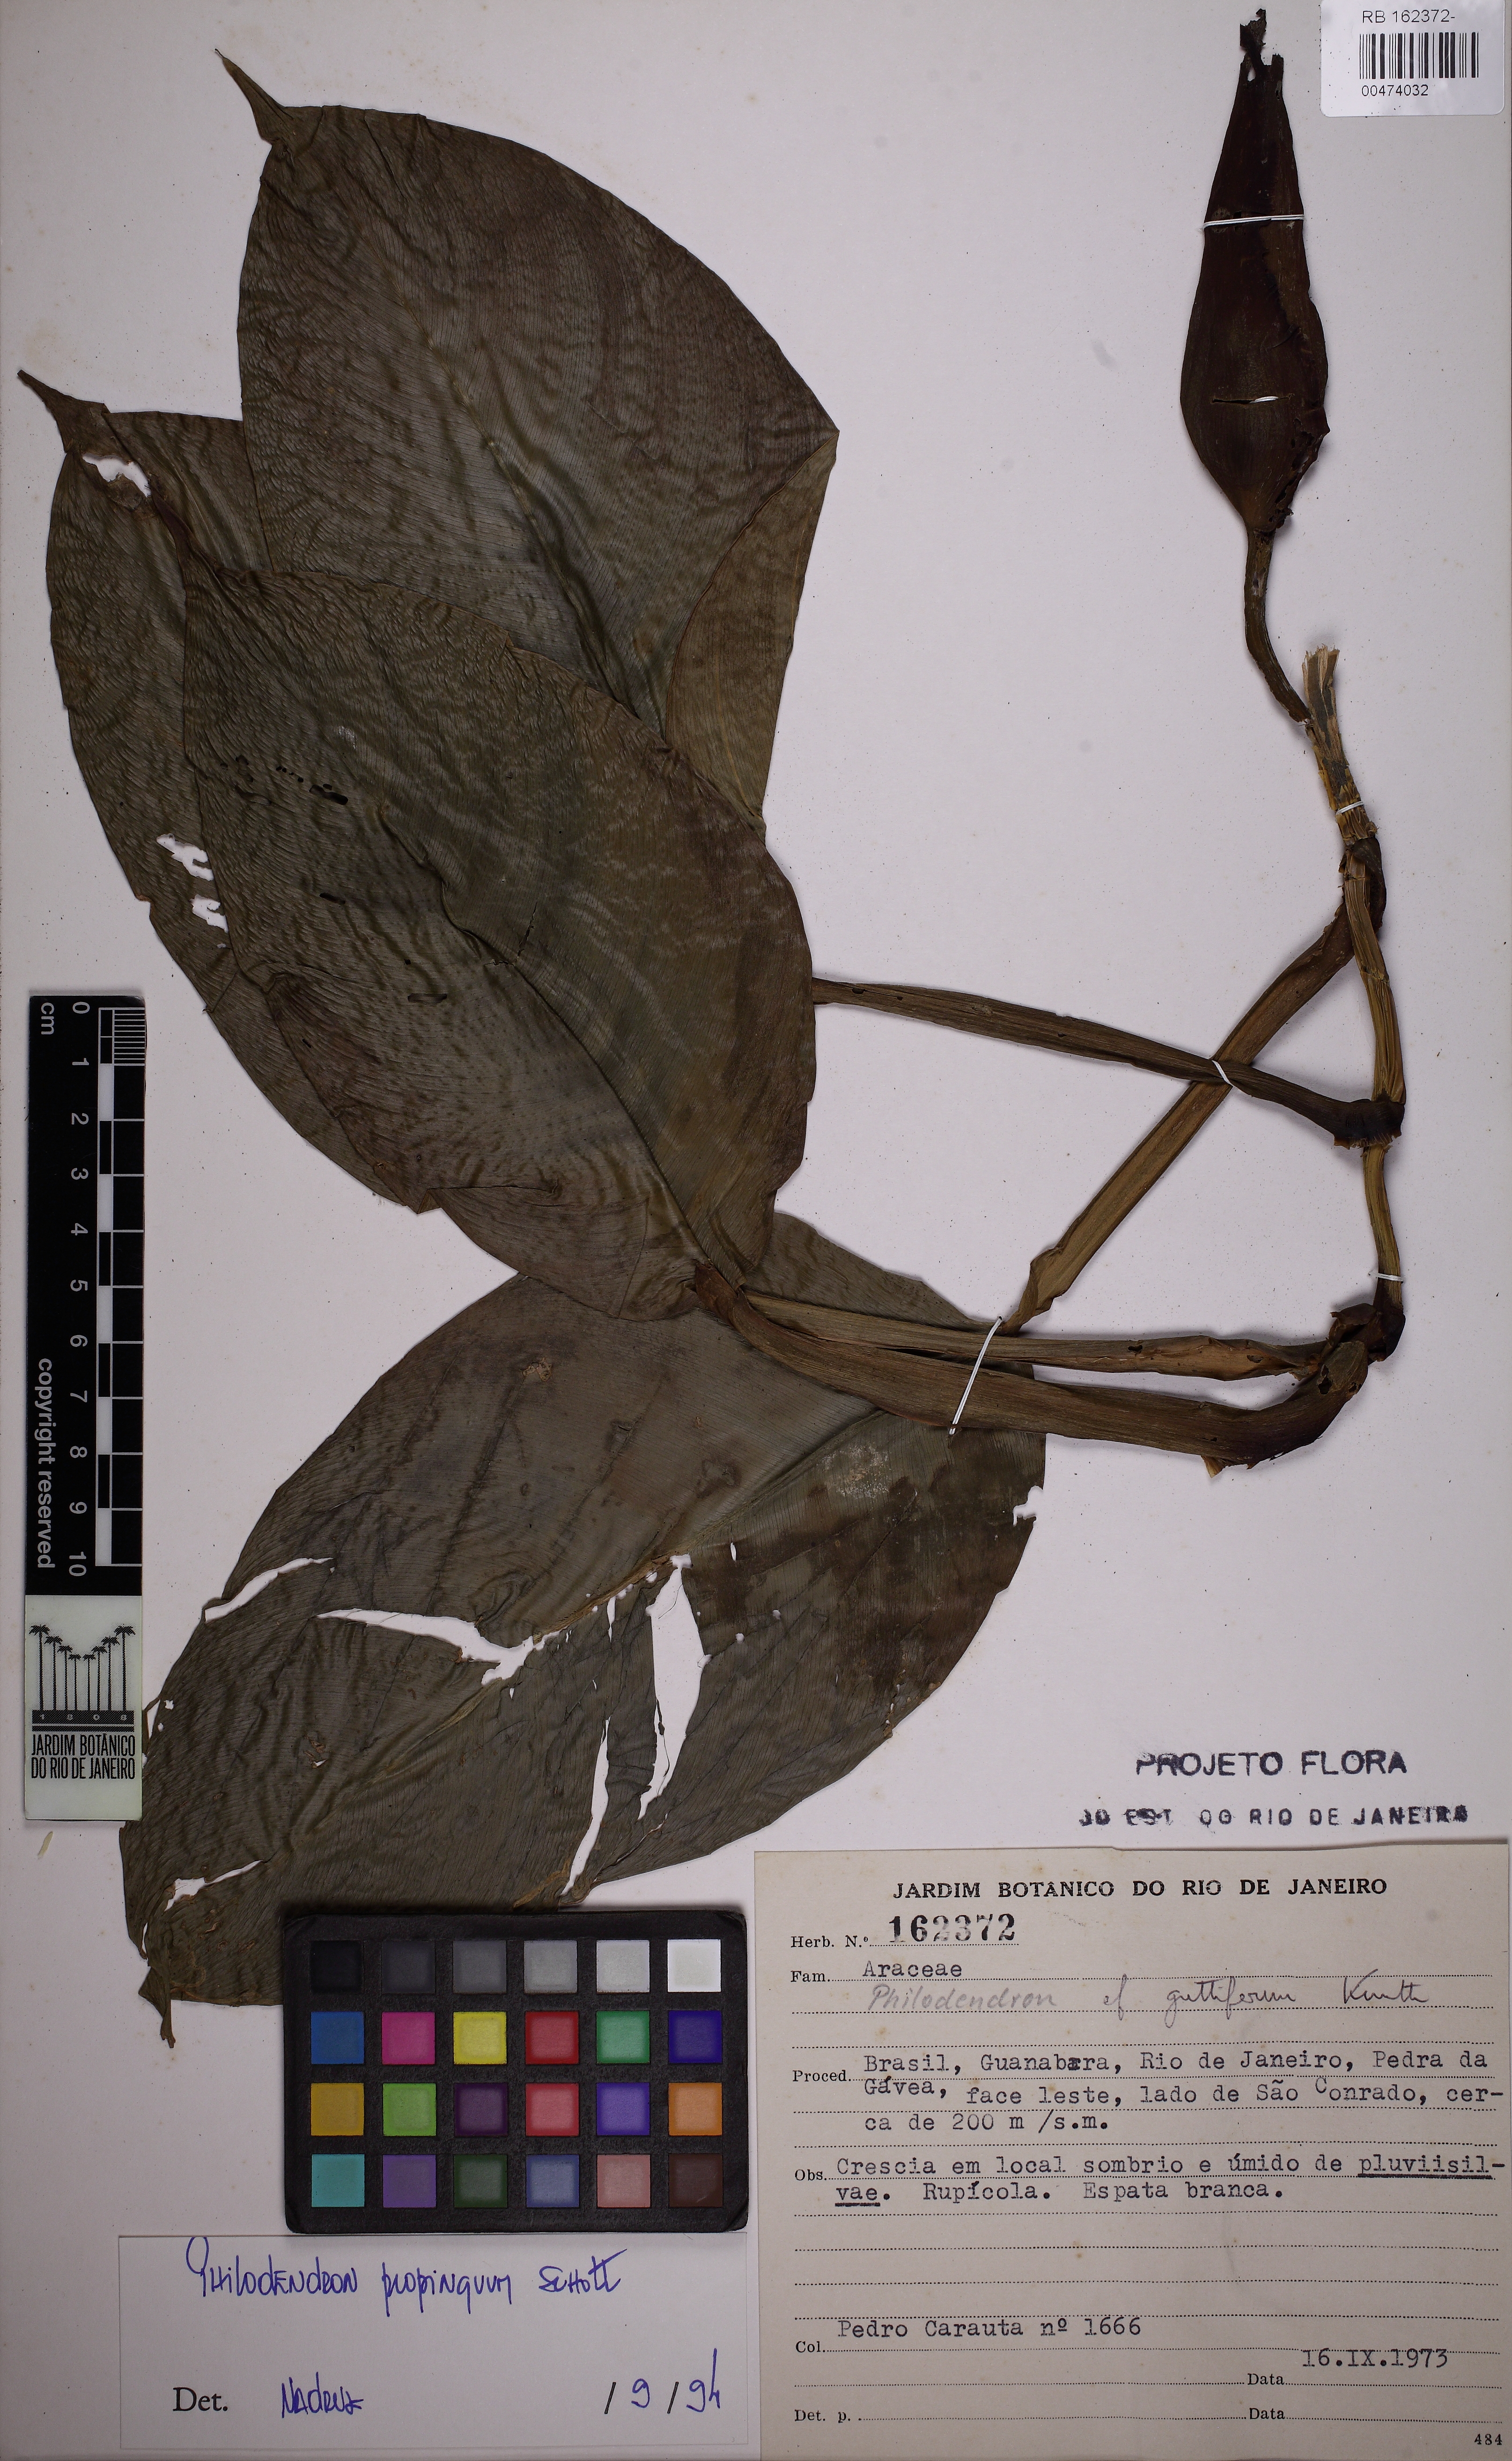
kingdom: Plantae
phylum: Tracheophyta
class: Liliopsida
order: Alismatales
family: Araceae
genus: Philodendron
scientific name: Philodendron propinquum
